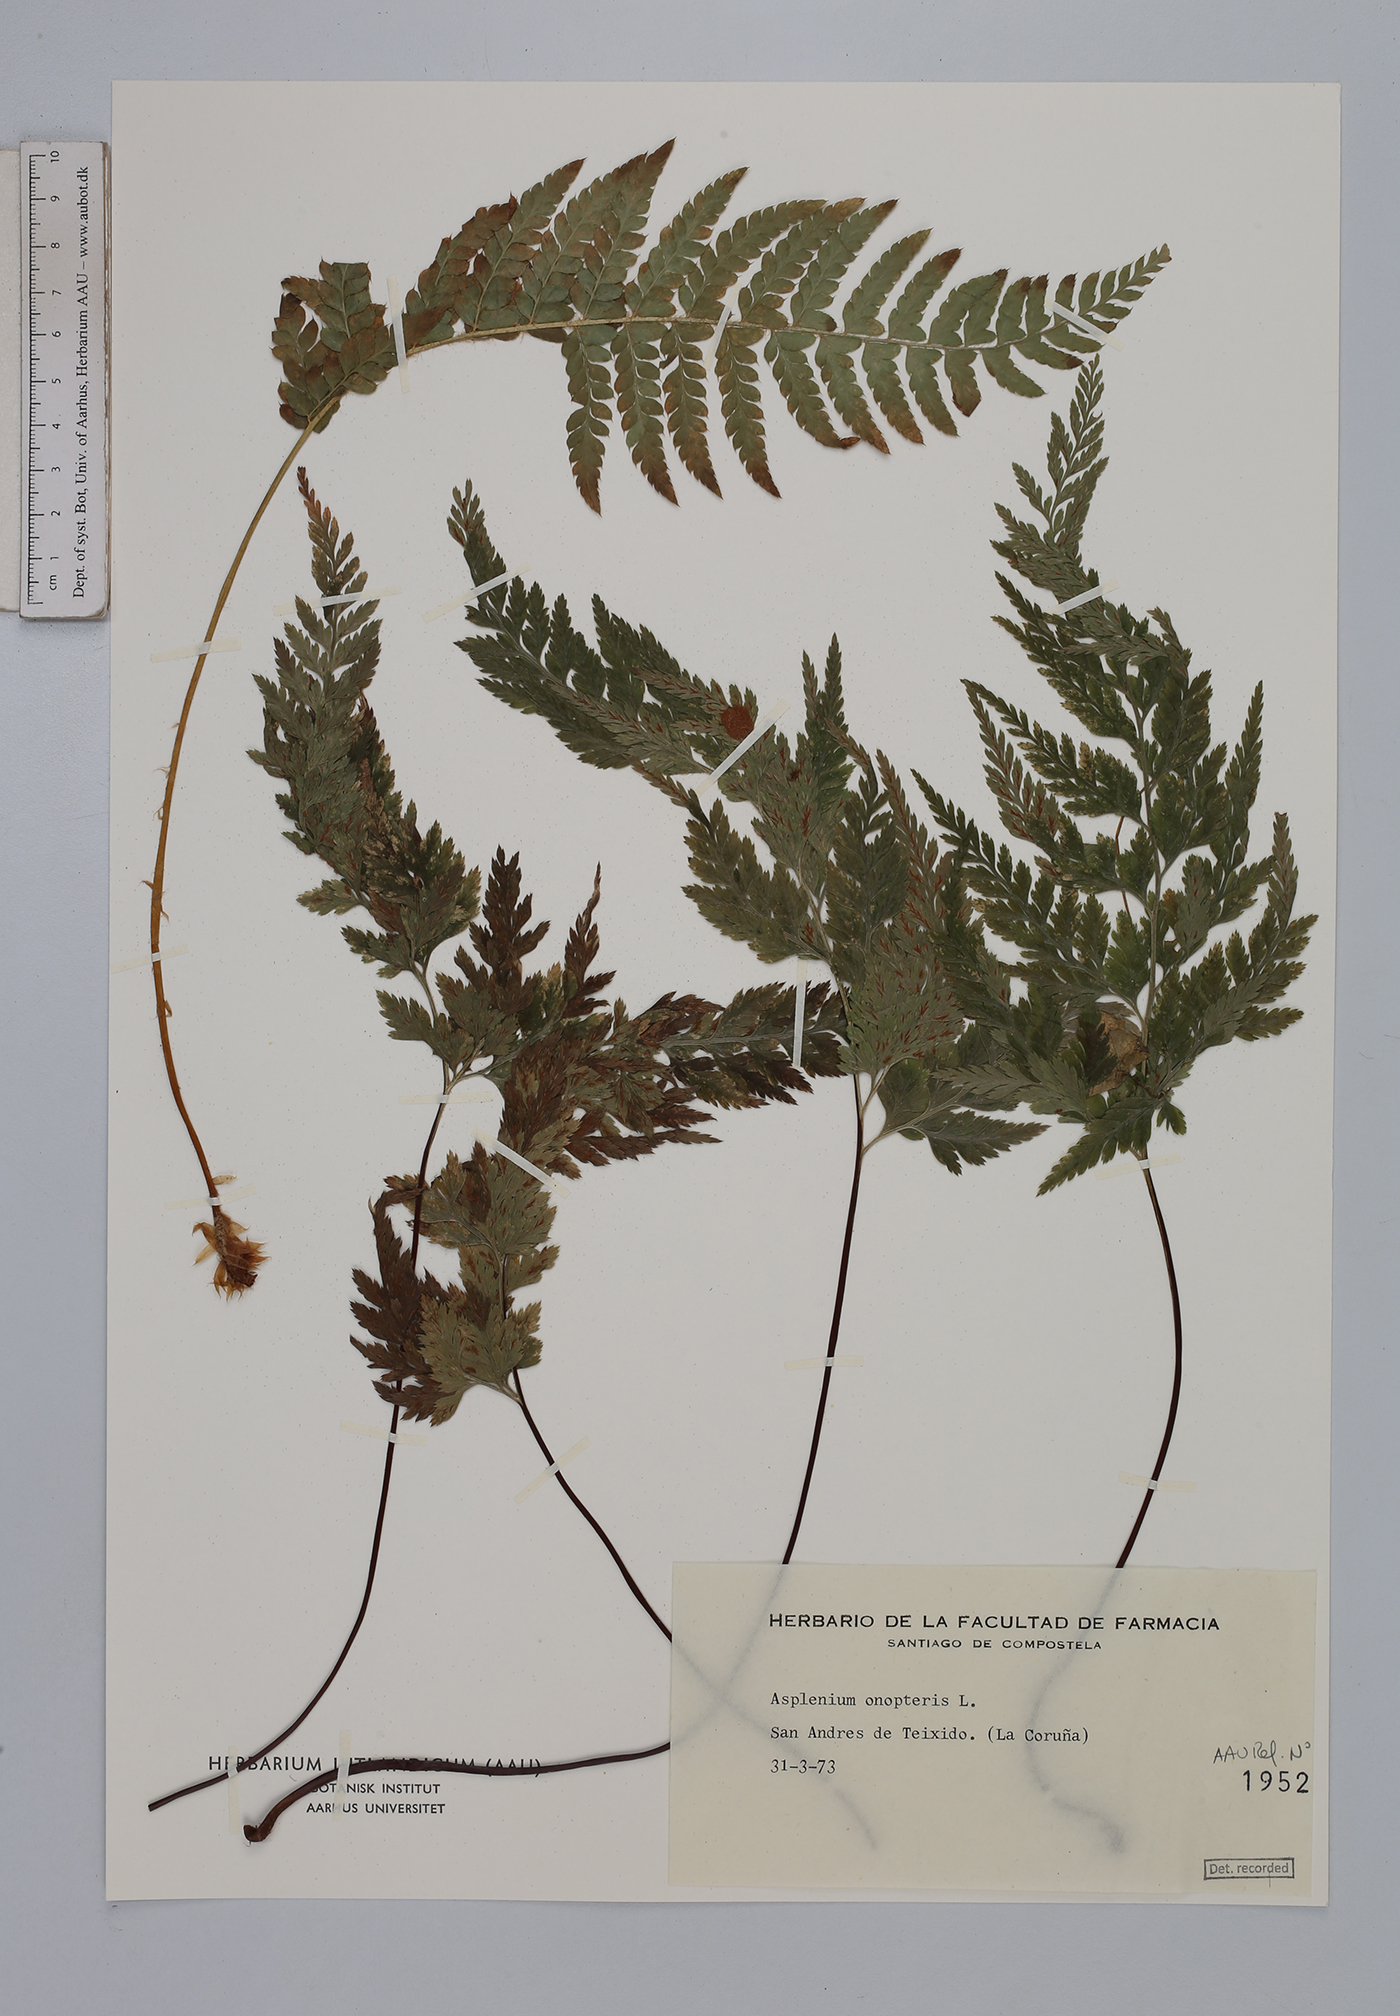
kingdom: Plantae
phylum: Tracheophyta
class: Polypodiopsida
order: Polypodiales
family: Aspleniaceae
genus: Asplenium
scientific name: Asplenium onopteris
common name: Irish spleenwort
